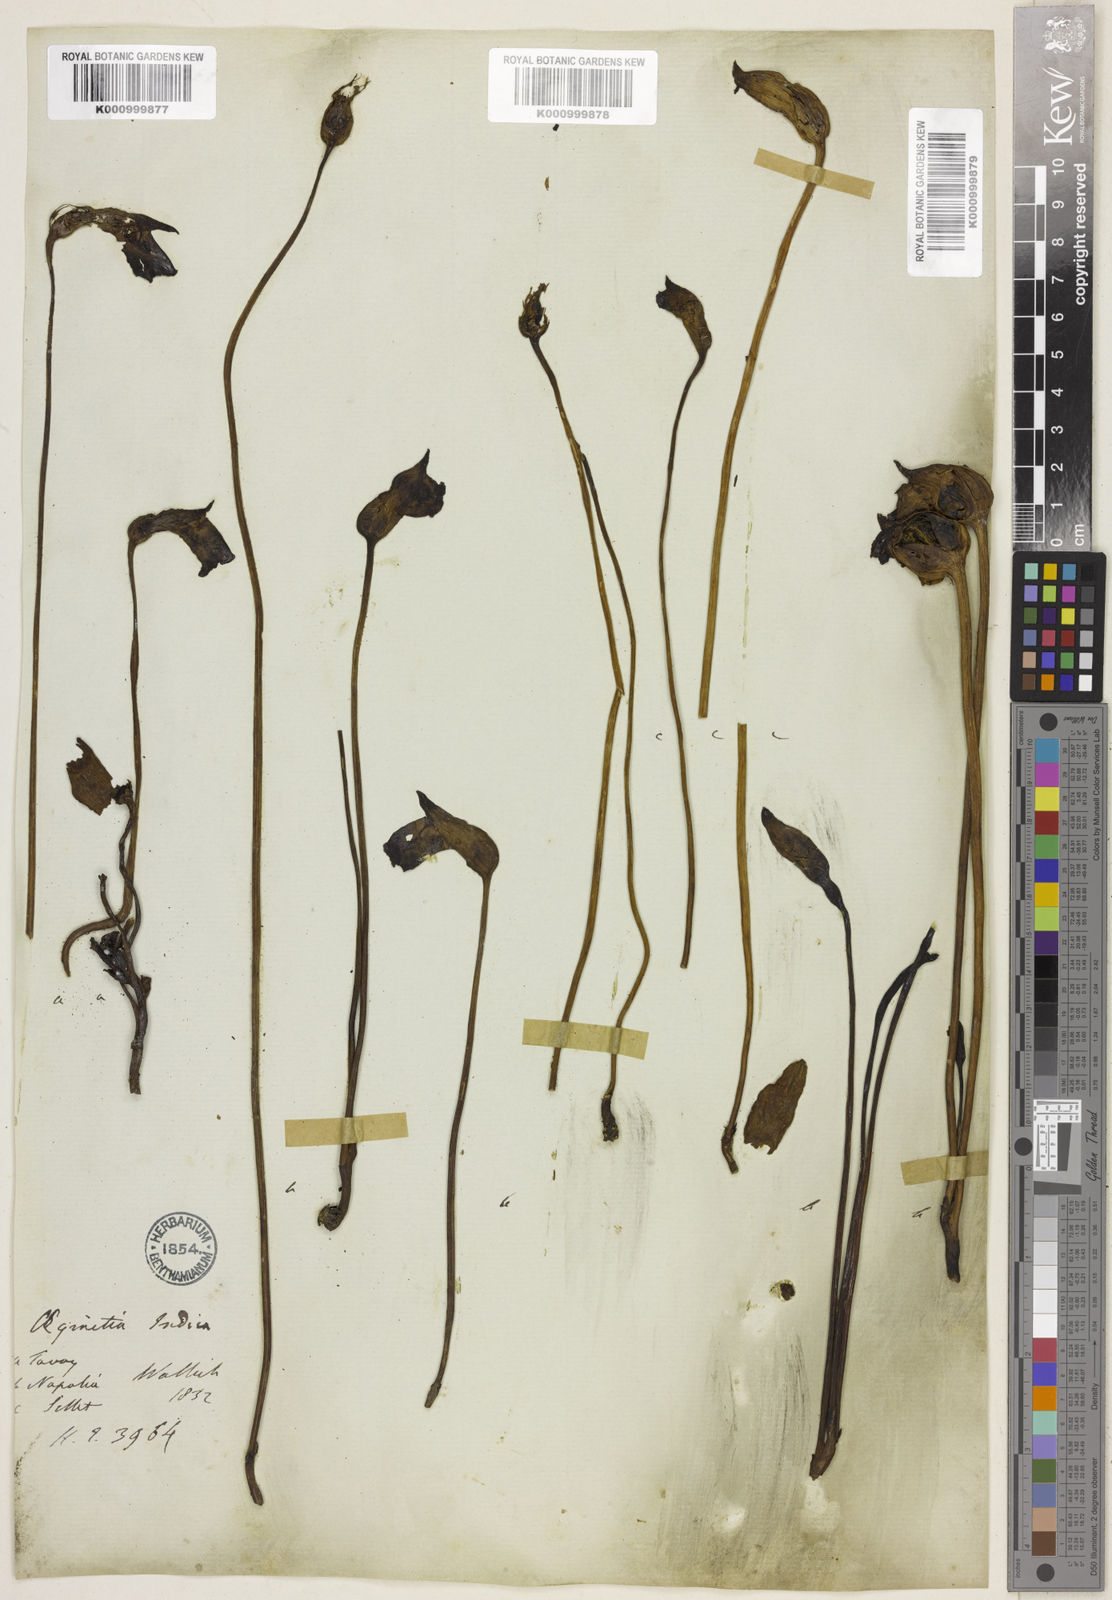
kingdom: Plantae
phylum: Tracheophyta
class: Magnoliopsida
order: Lamiales
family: Orobanchaceae
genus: Aeginetia
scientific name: Aeginetia
